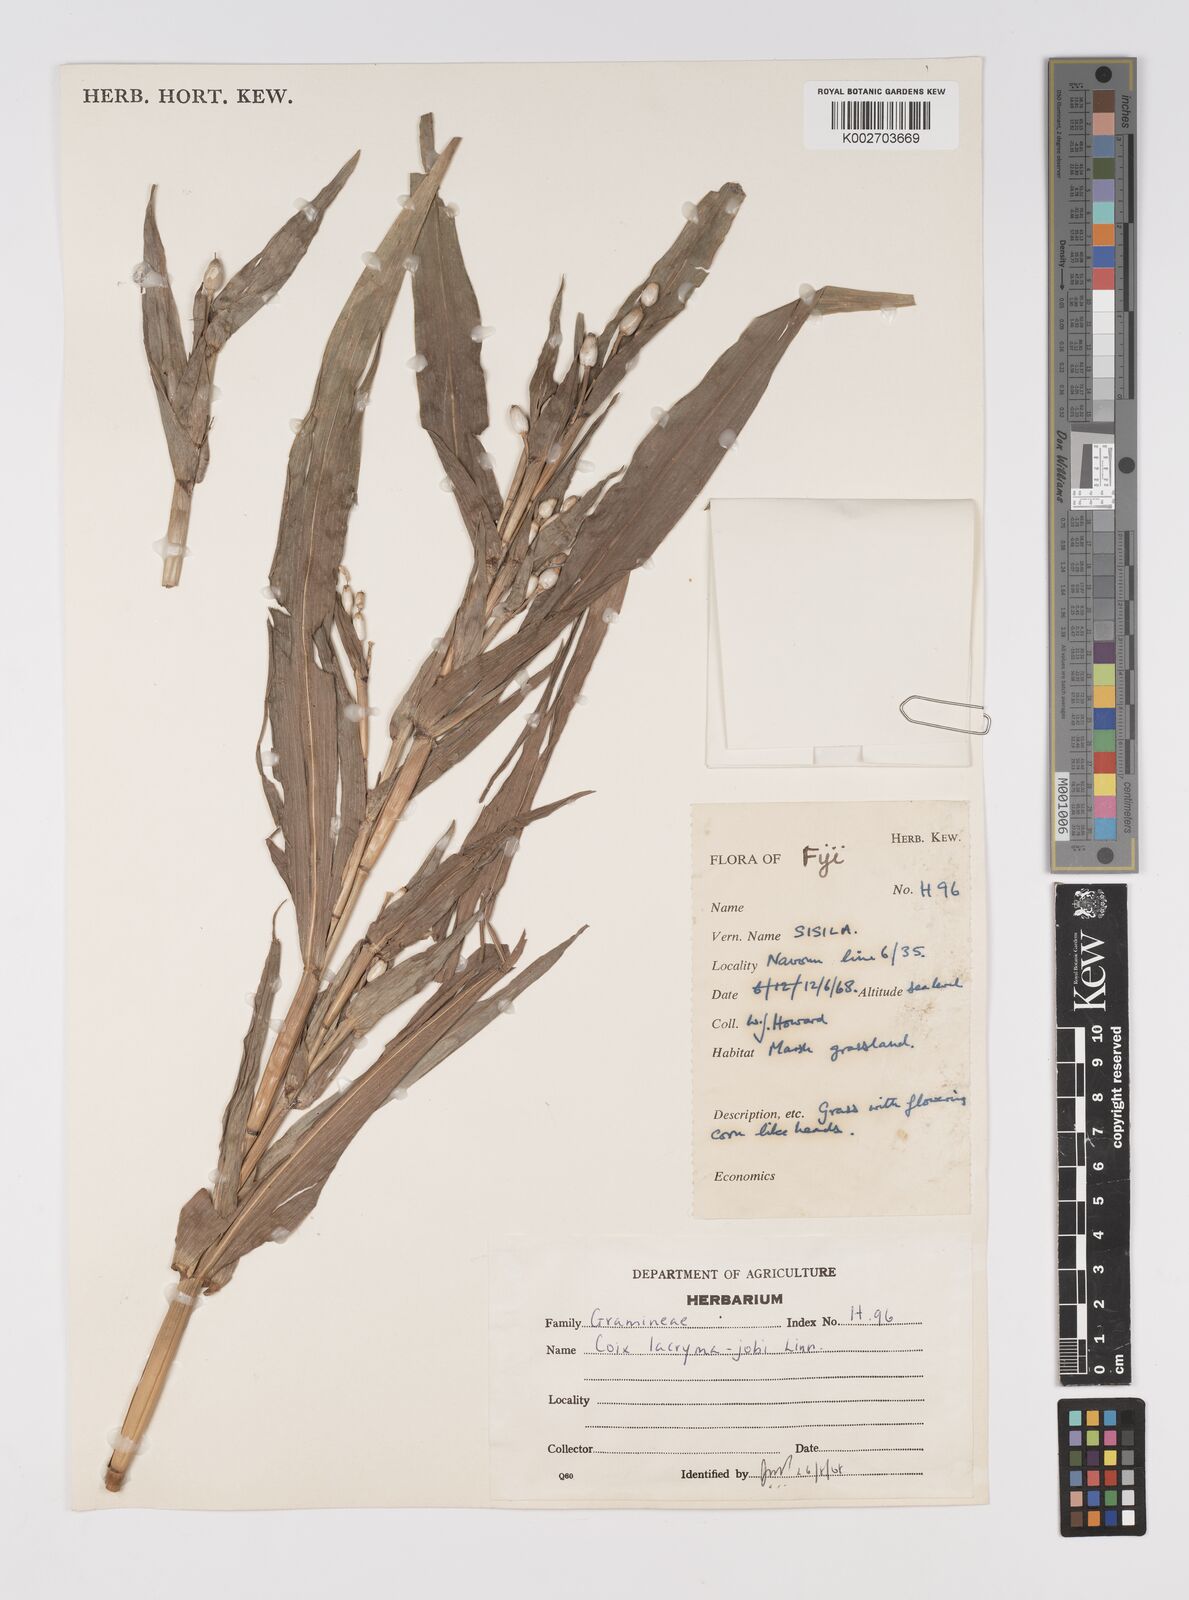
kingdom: Plantae
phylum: Tracheophyta
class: Liliopsida
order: Poales
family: Poaceae
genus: Coix
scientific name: Coix lacryma-jobi
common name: Job's tears
